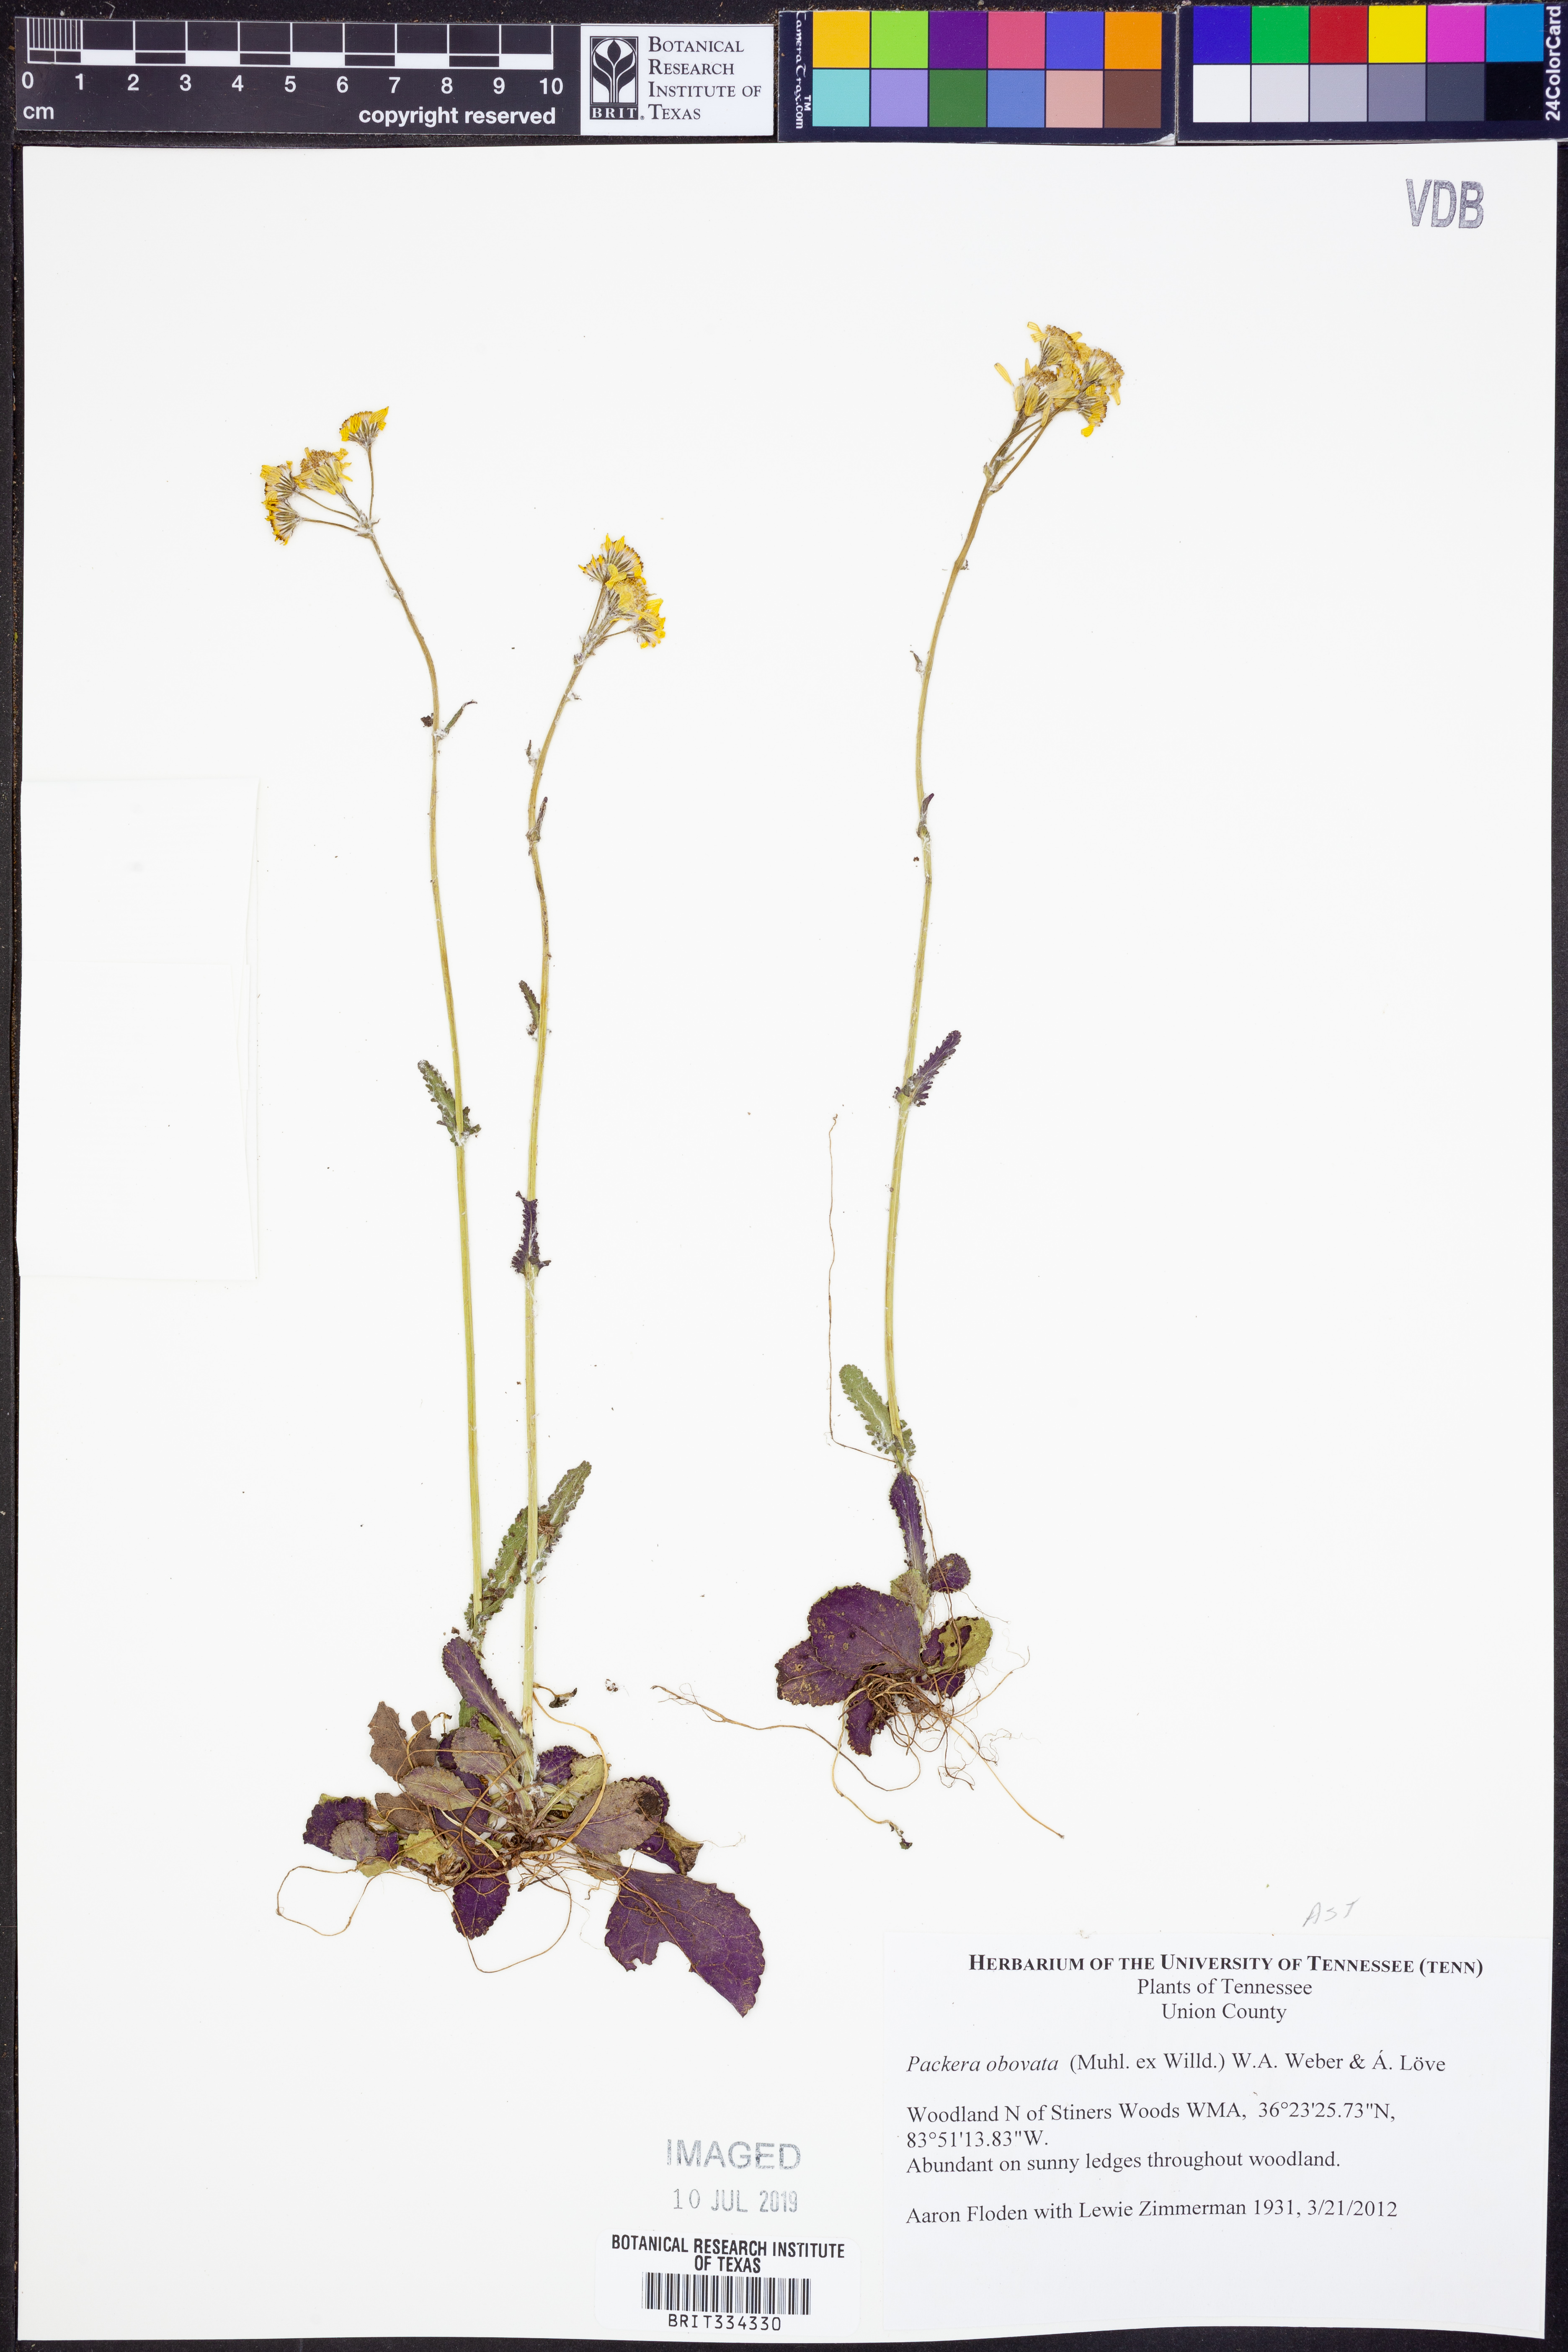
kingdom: Plantae
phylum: Tracheophyta
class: Magnoliopsida
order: Asterales
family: Asteraceae
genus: Packera
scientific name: Packera obovata
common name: Round-leaf ragwort
